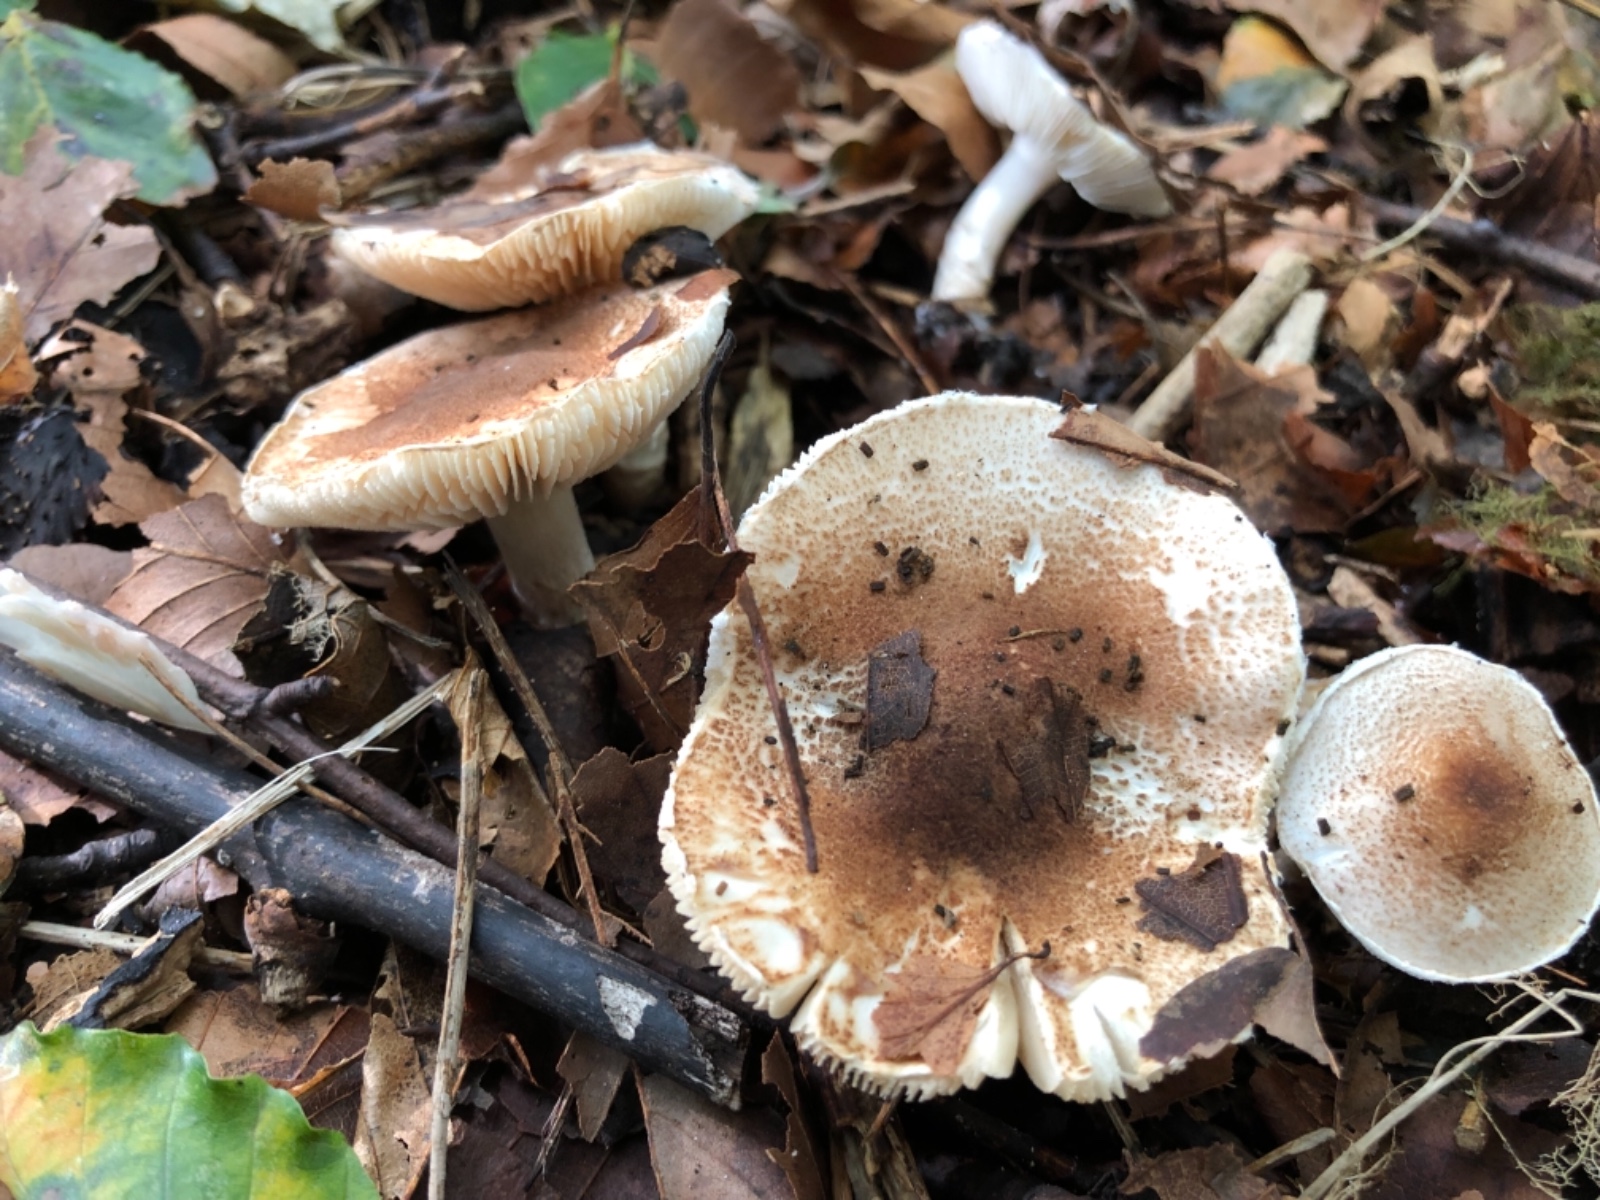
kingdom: Fungi
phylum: Basidiomycota
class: Agaricomycetes
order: Agaricales
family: Agaricaceae
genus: Lepiota
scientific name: Lepiota
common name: parasolhat
